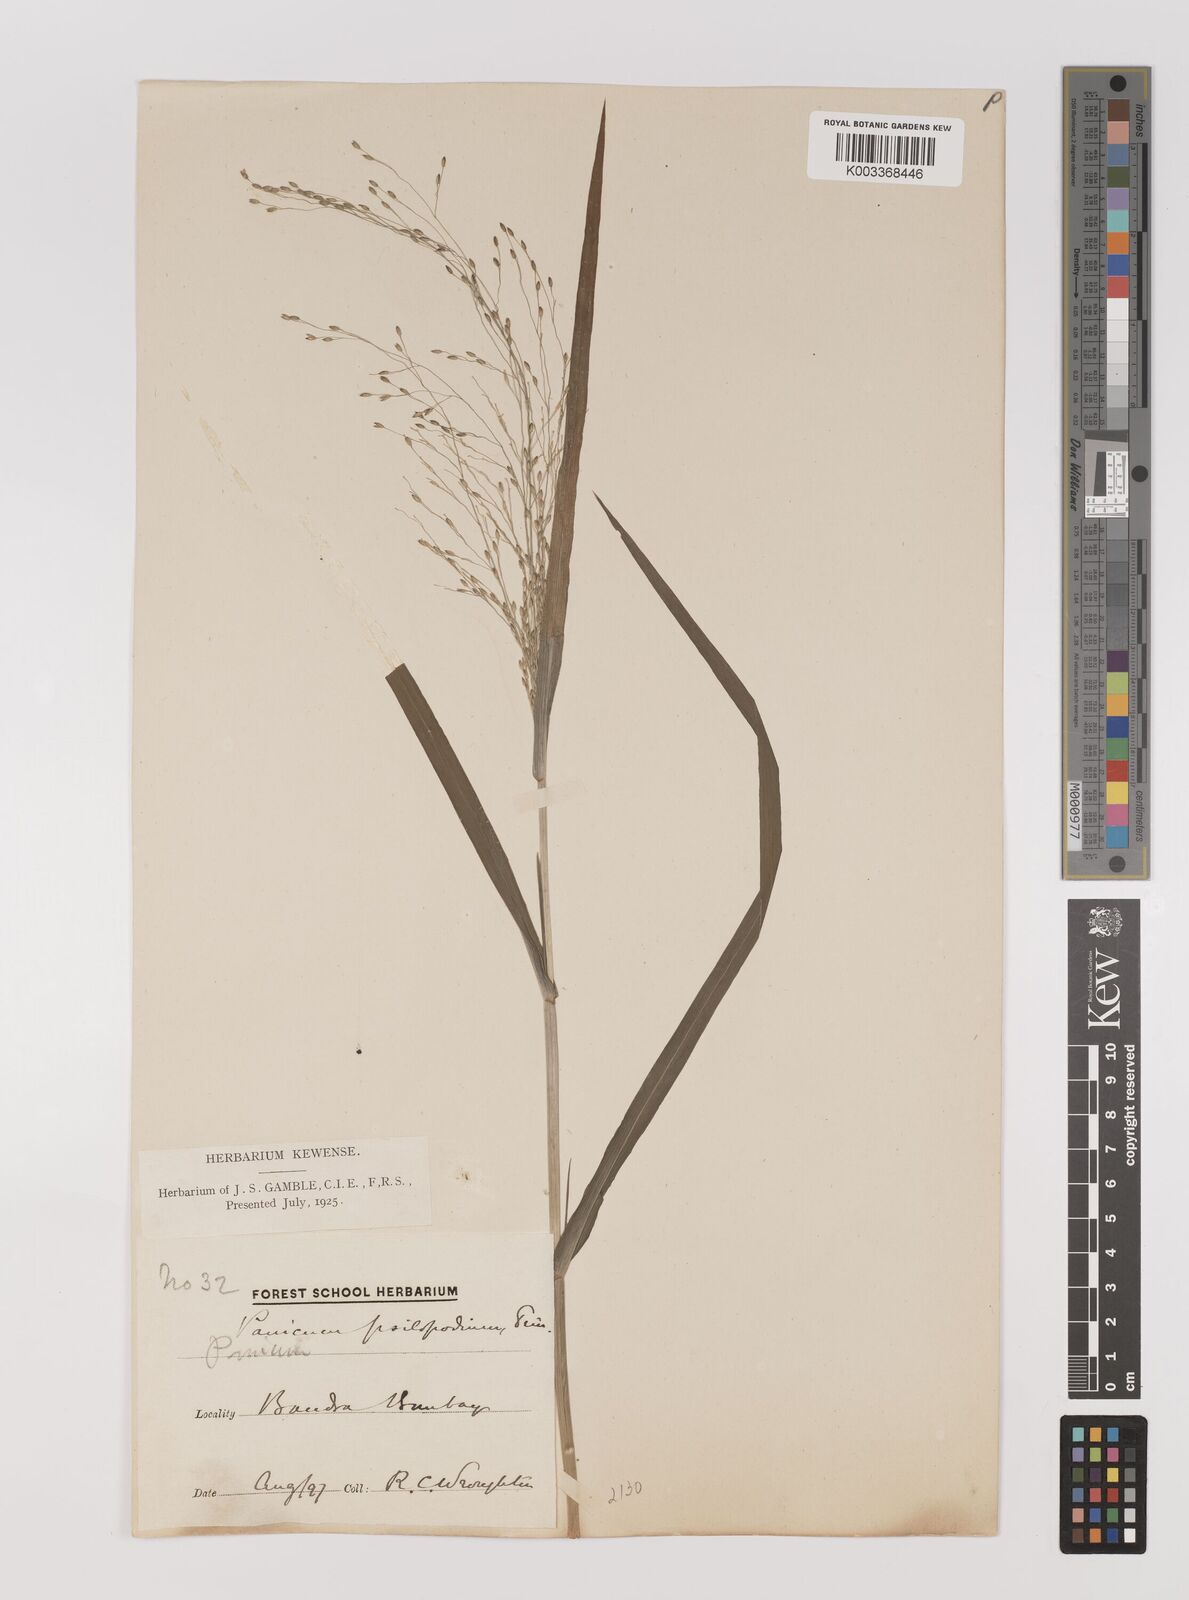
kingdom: Plantae
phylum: Tracheophyta
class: Liliopsida
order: Poales
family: Poaceae
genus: Panicum
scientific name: Panicum sumatrense
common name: Little millet
